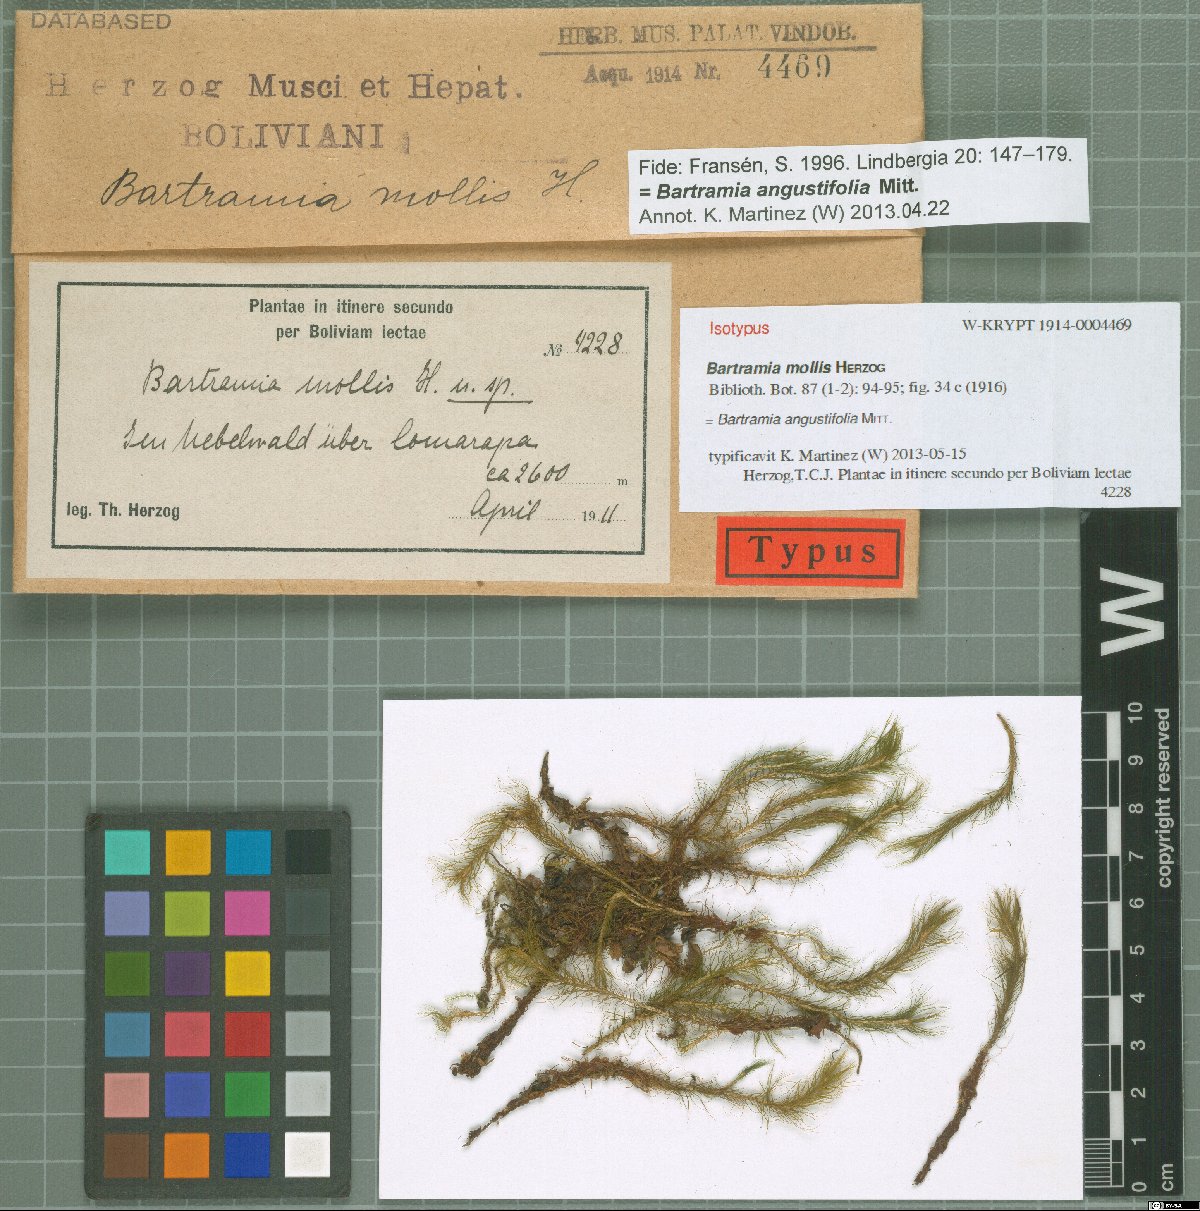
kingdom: Plantae
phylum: Bryophyta
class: Bryopsida
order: Bartramiales
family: Bartramiaceae
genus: Bartramia
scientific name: Bartramia angustifolia
